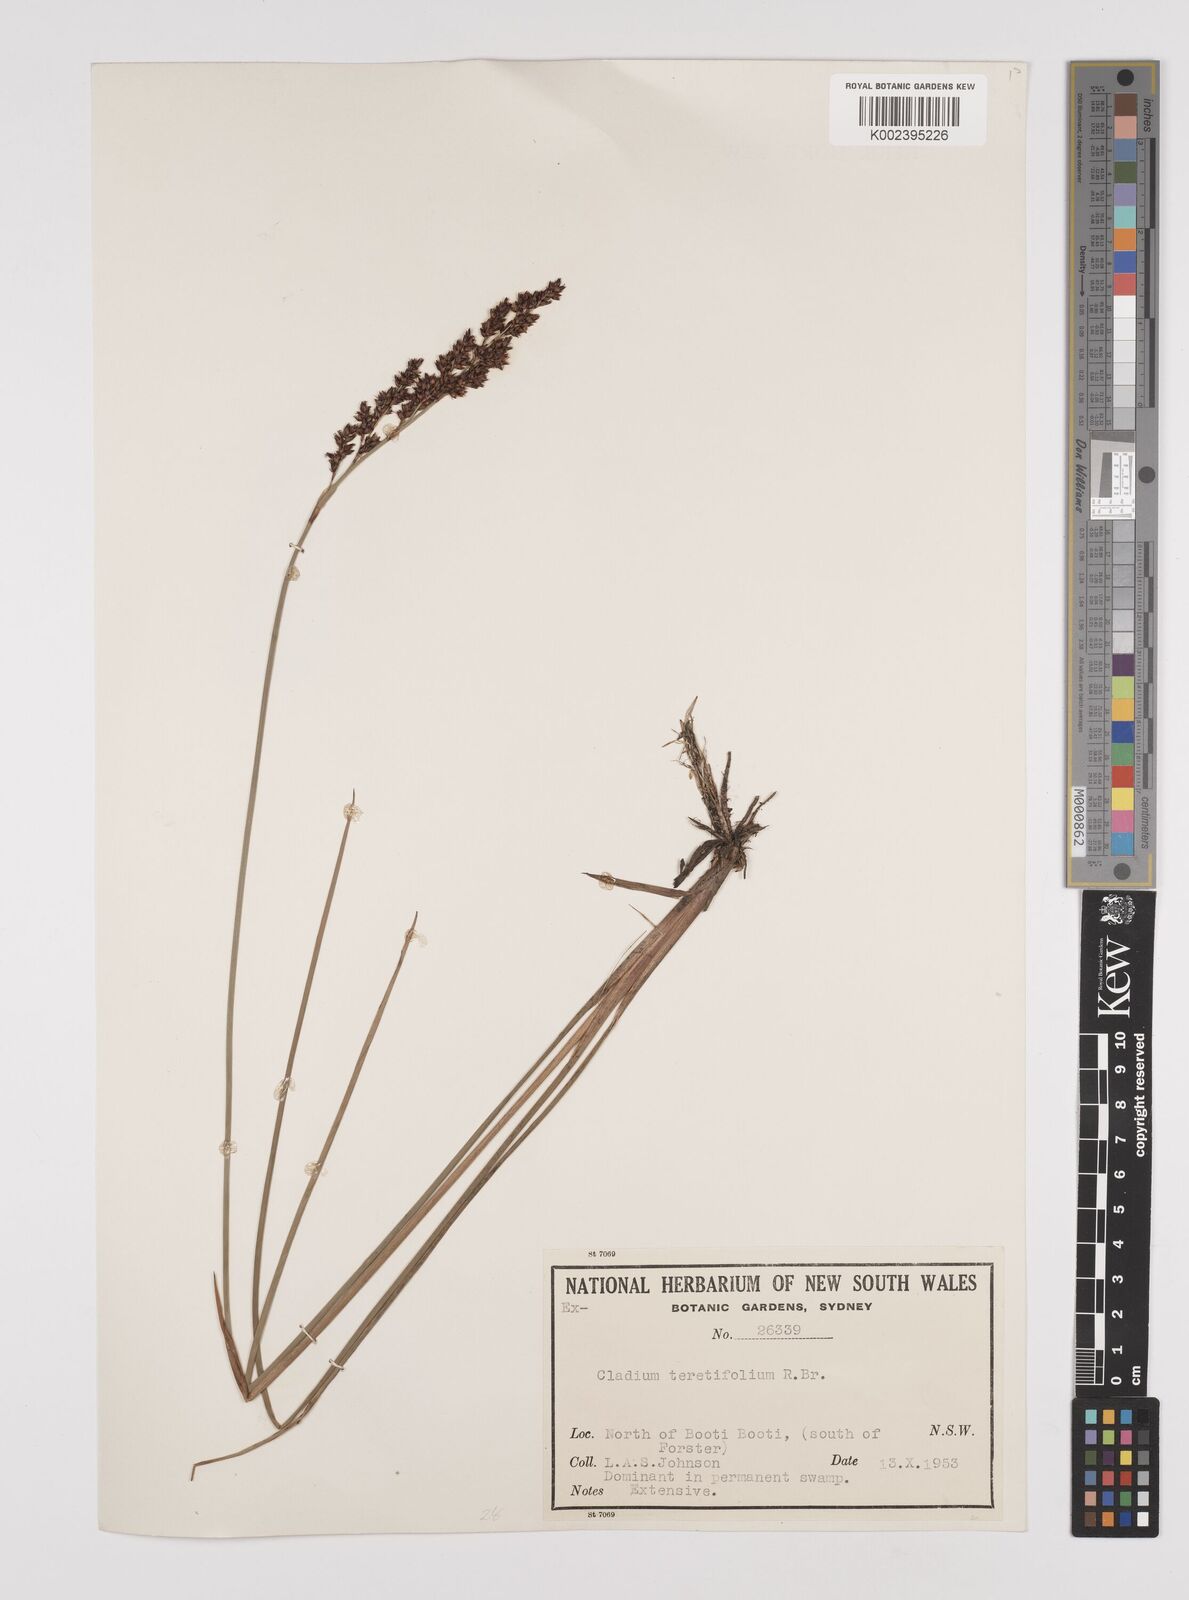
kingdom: Plantae
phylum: Tracheophyta
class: Liliopsida
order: Poales
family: Cyperaceae
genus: Machaerina
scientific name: Machaerina teretifolia
